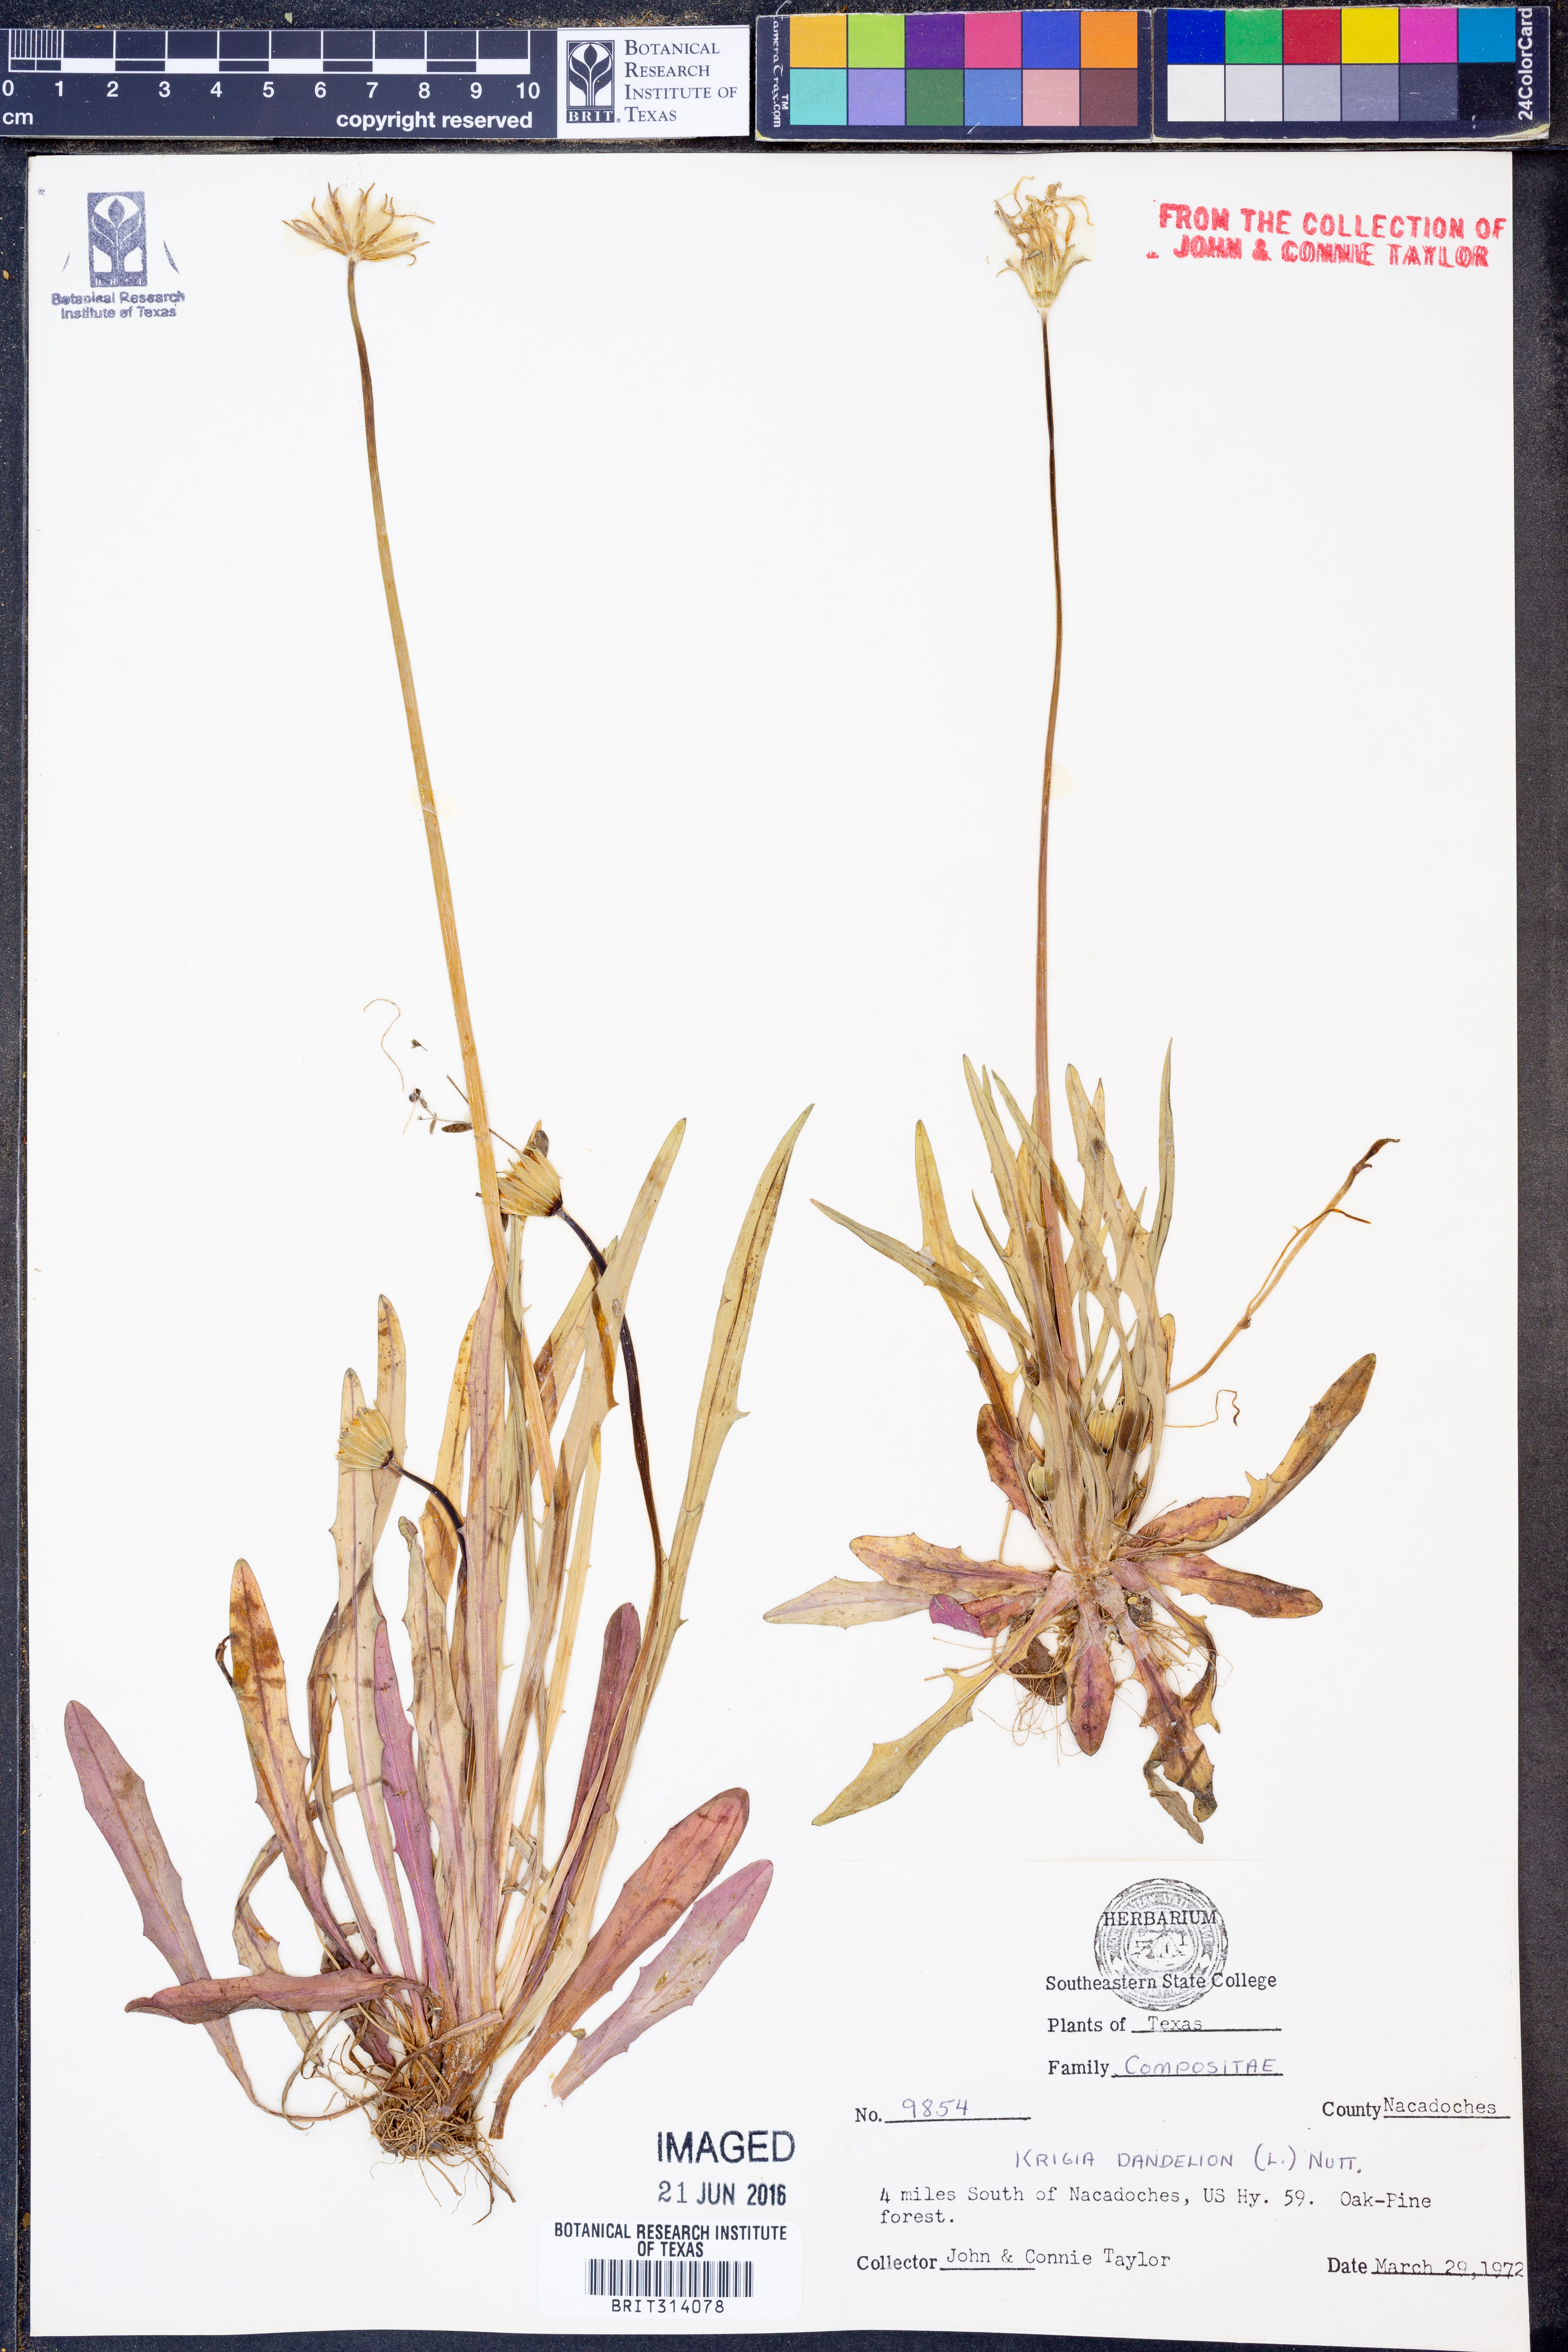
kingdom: Plantae
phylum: Tracheophyta
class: Magnoliopsida
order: Asterales
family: Asteraceae
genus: Krigia
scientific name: Krigia dandelion
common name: Colonial dwarf-dandelion
